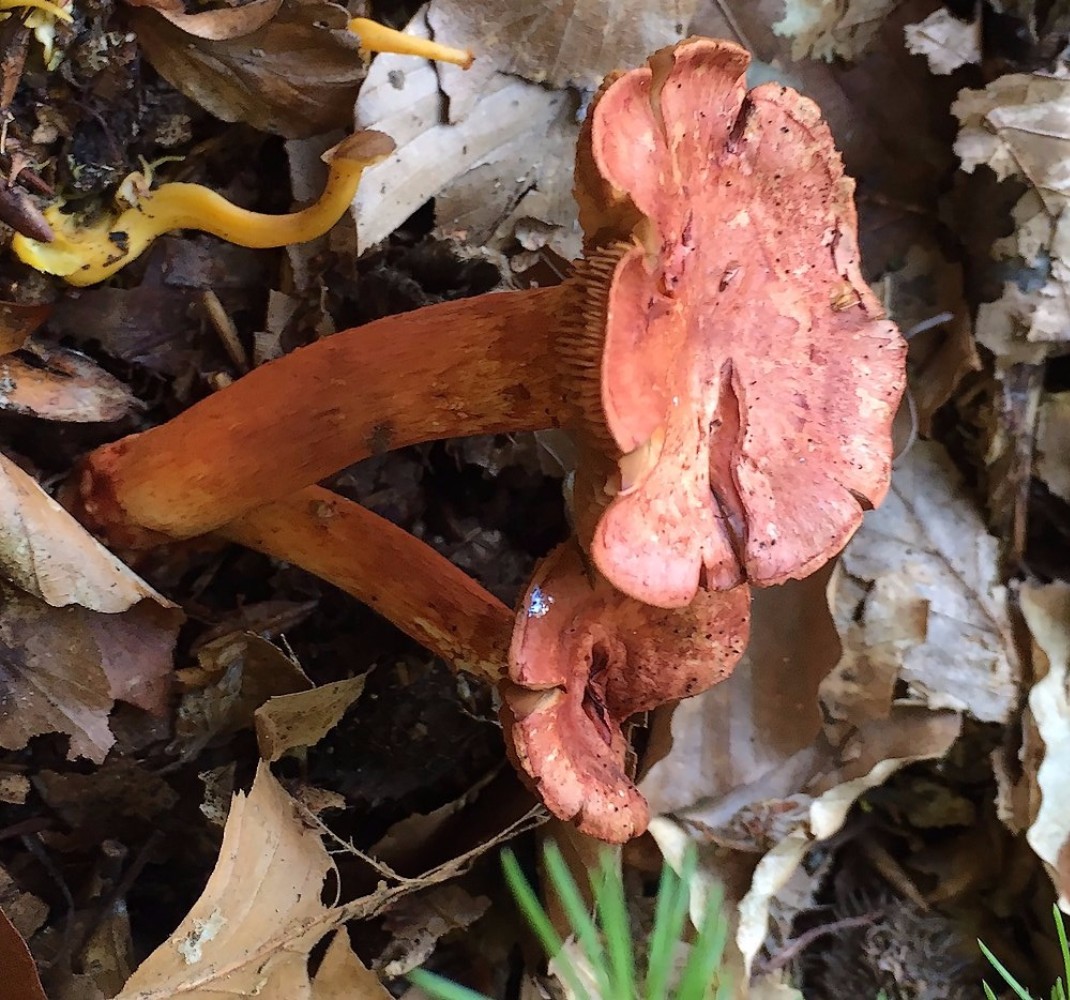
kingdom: Fungi
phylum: Basidiomycota
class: Agaricomycetes
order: Agaricales
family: Cortinariaceae
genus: Cortinarius
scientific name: Cortinarius bolaris
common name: cinnoberskællet slørhat
